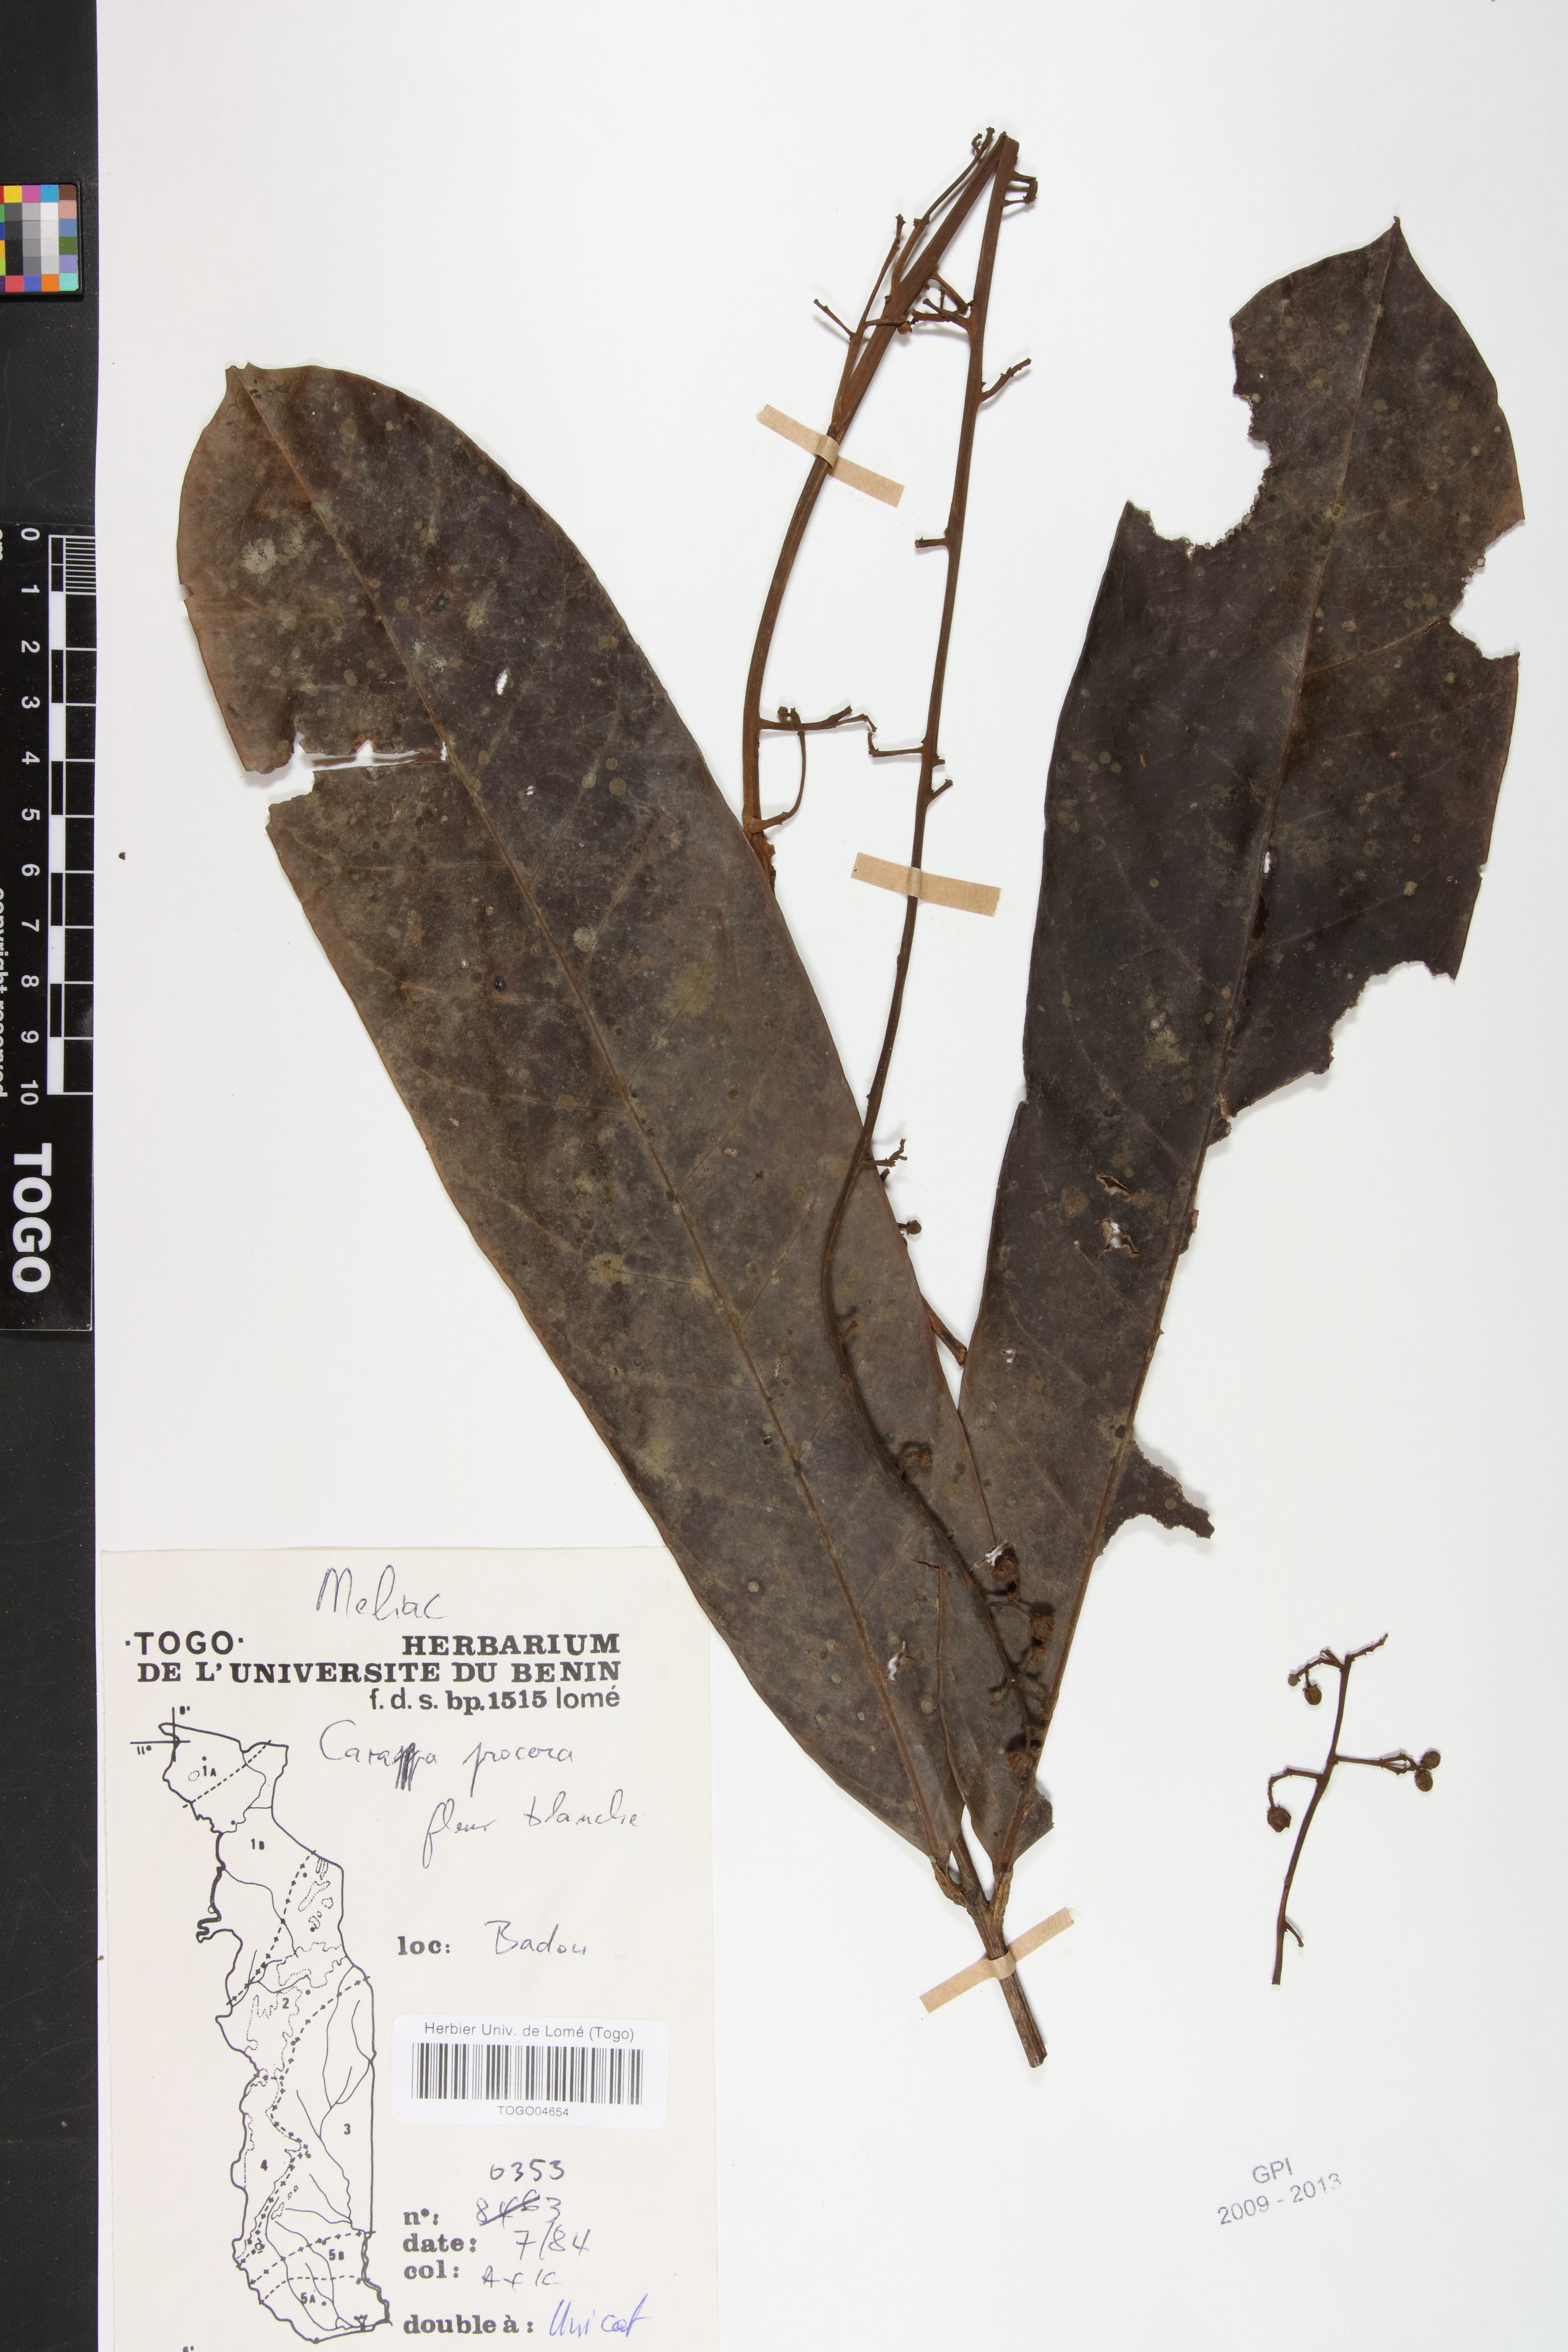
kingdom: Plantae
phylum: Tracheophyta
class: Magnoliopsida
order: Sapindales
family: Meliaceae
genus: Carapa
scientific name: Carapa procera
